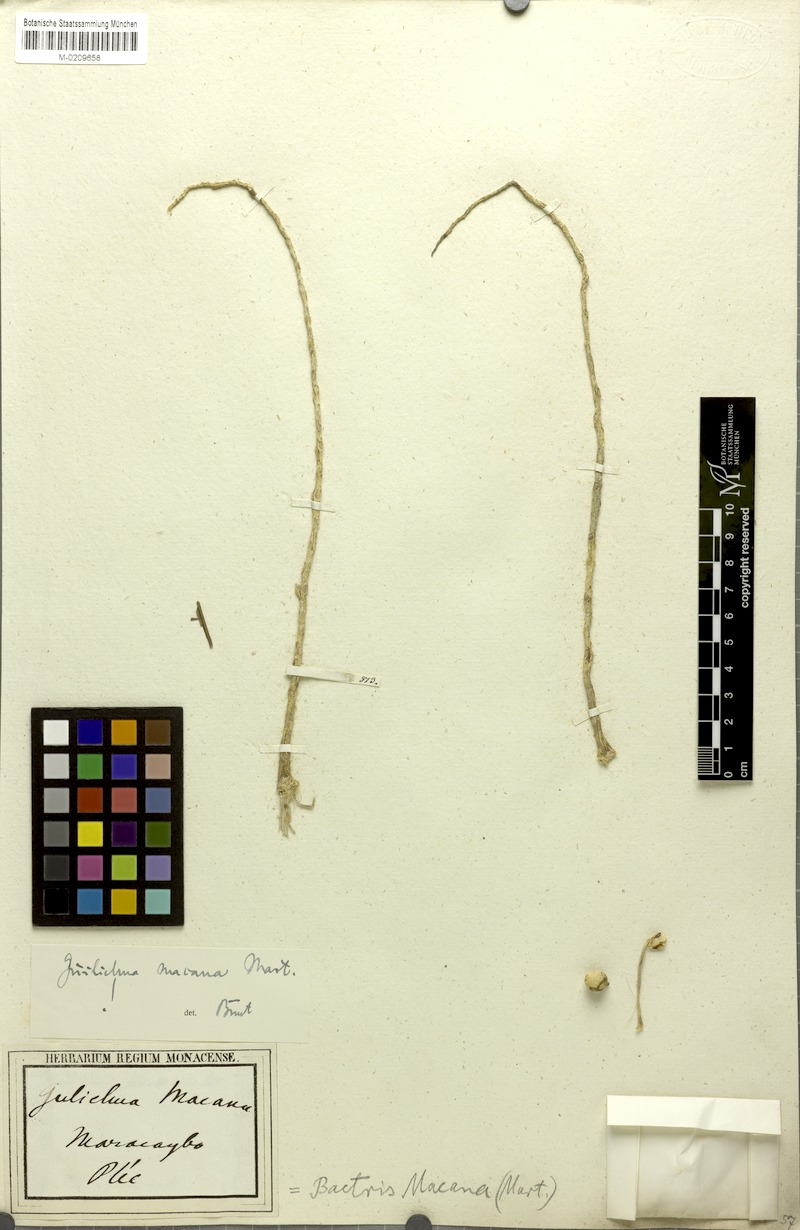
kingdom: Plantae
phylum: Tracheophyta
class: Liliopsida
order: Arecales
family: Arecaceae
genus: Bactris
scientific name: Bactris gasipaes
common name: Peach palm
